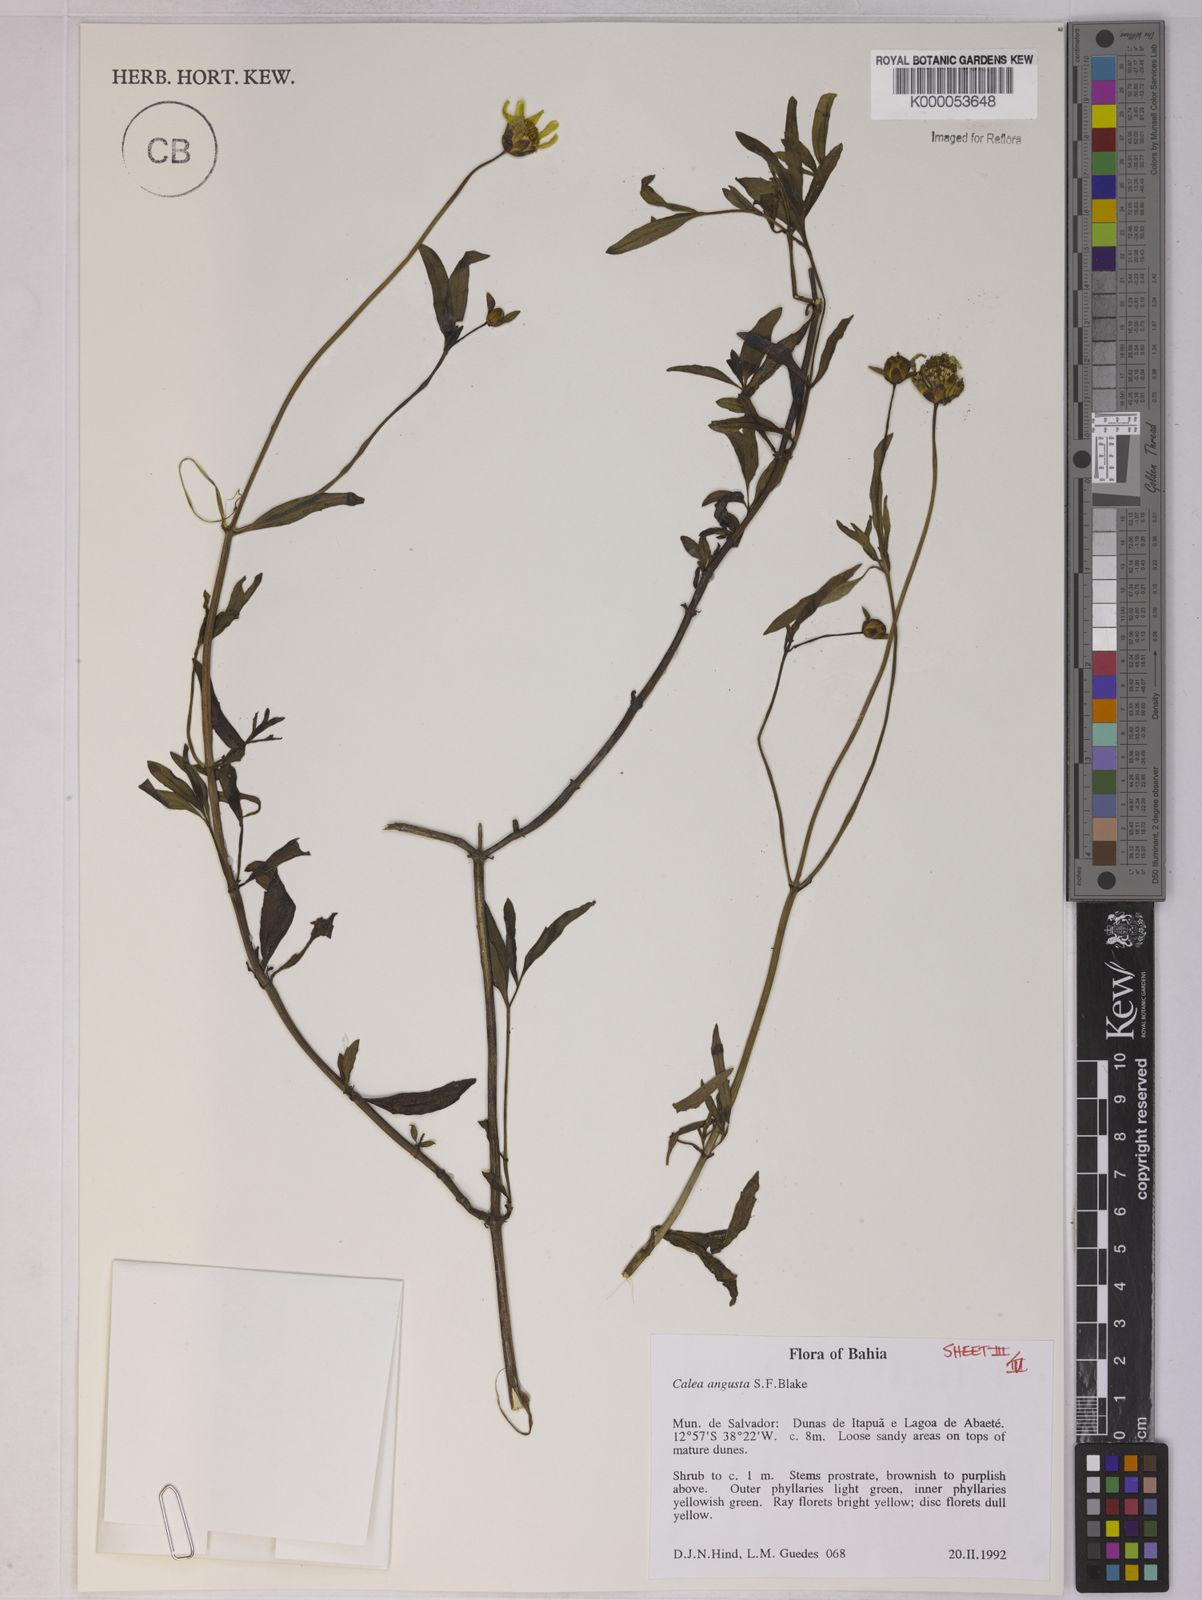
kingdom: Plantae
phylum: Tracheophyta
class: Magnoliopsida
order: Asterales
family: Asteraceae
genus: Calea
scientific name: Calea angusta
